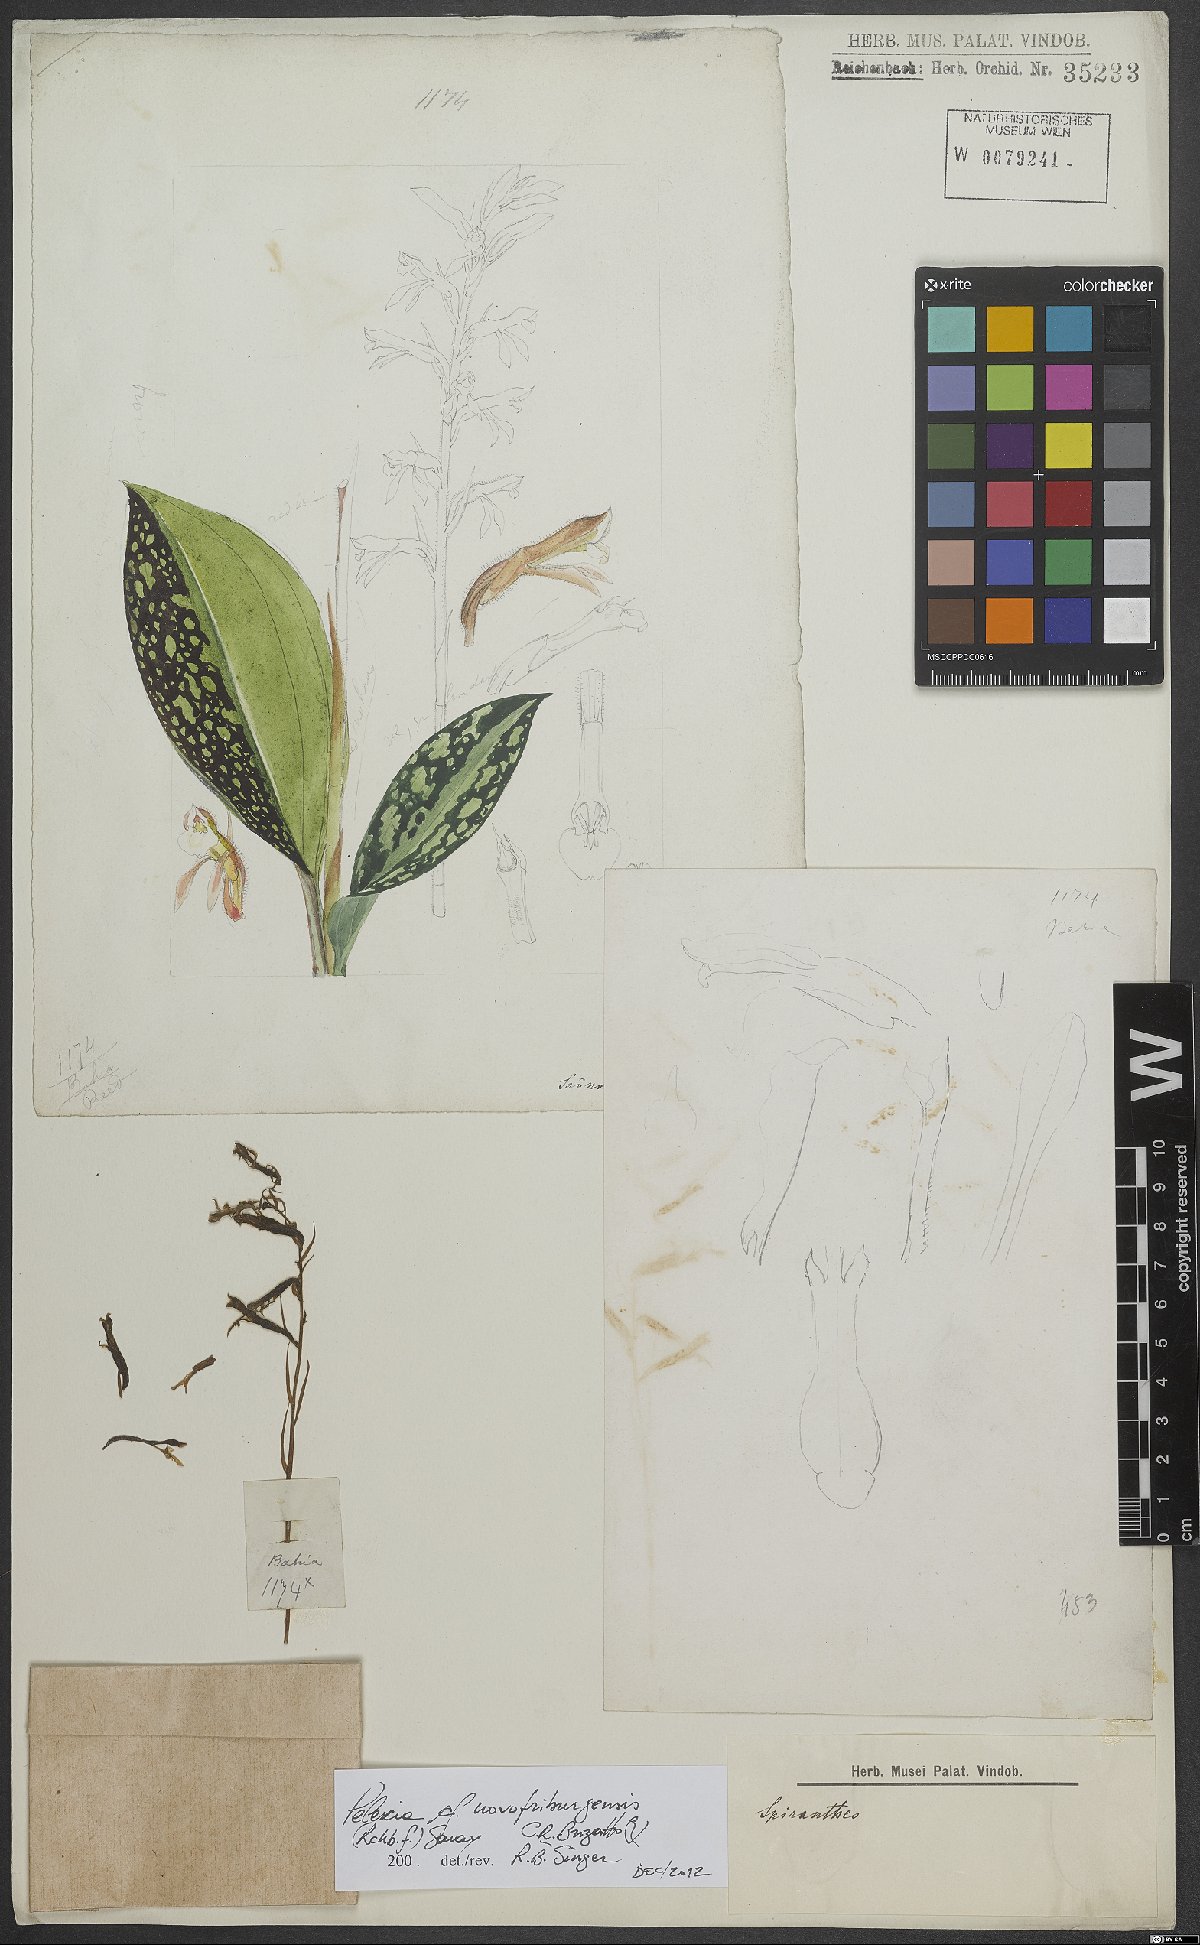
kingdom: Plantae
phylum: Tracheophyta
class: Liliopsida
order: Asparagales
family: Orchidaceae
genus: Pelexia
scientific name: Pelexia novofriburgensis
